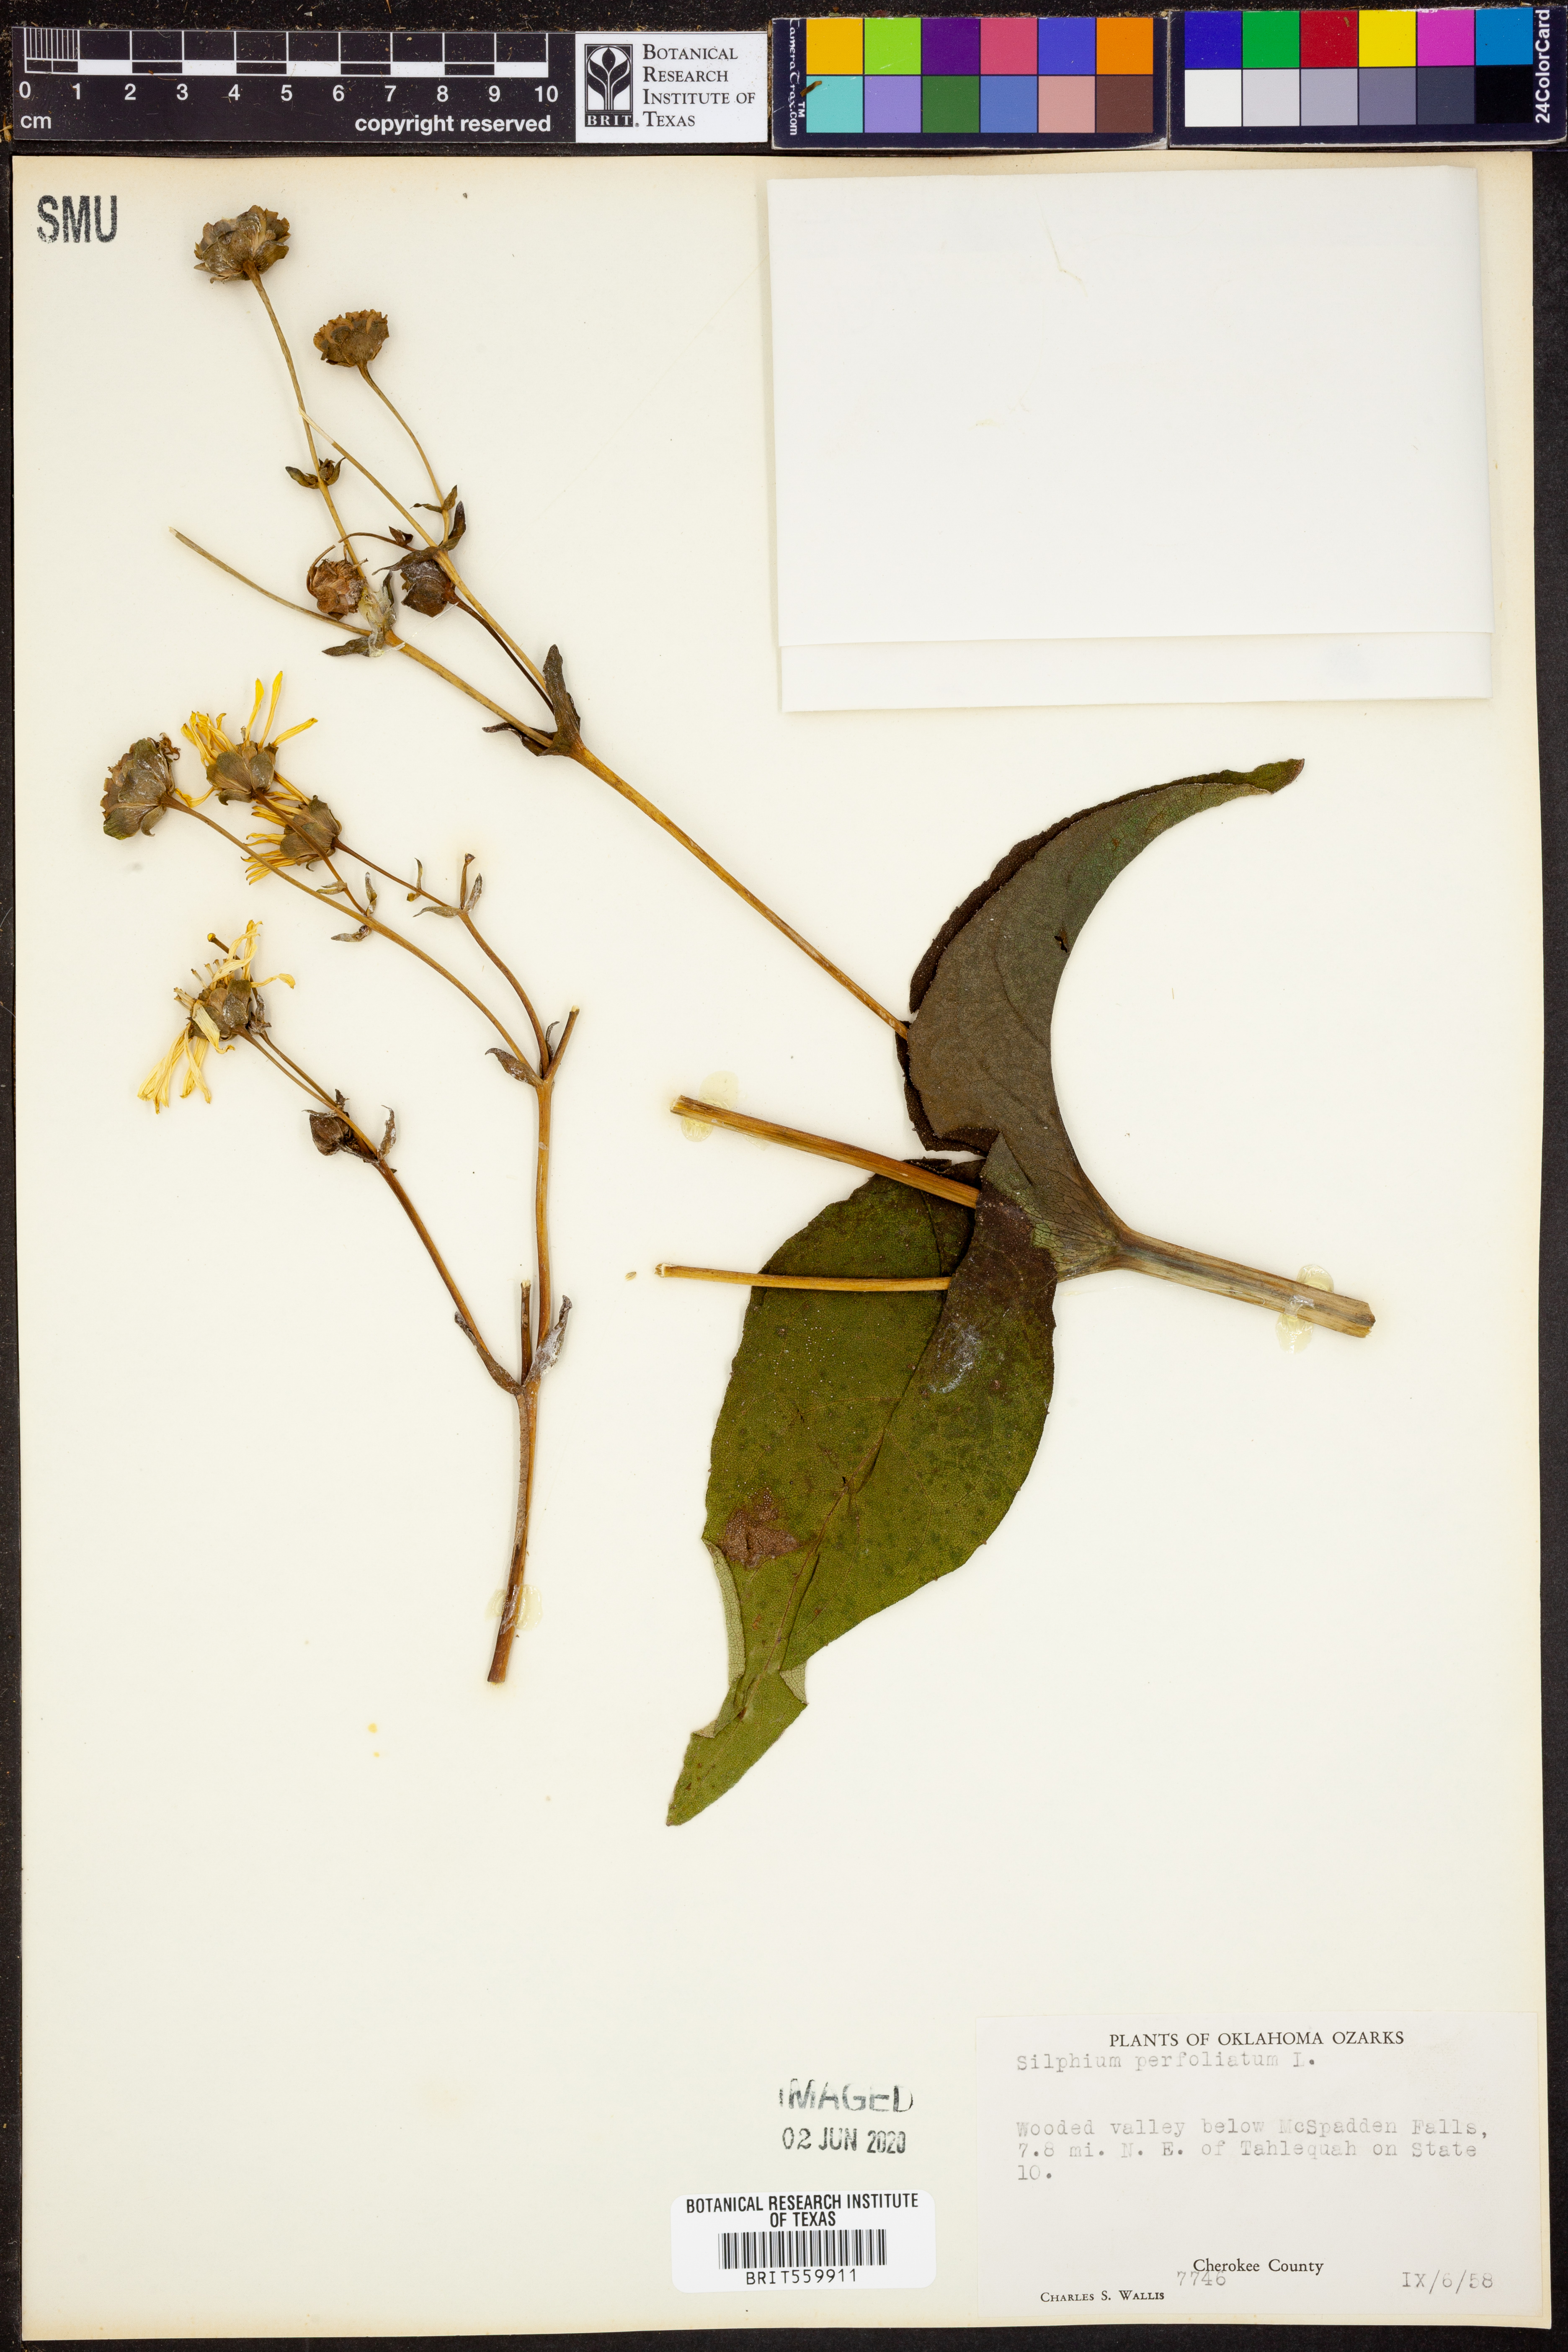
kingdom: Plantae
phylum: Tracheophyta
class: Magnoliopsida
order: Asterales
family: Asteraceae
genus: Silphium
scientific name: Silphium perfoliatum
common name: Cup-plant
